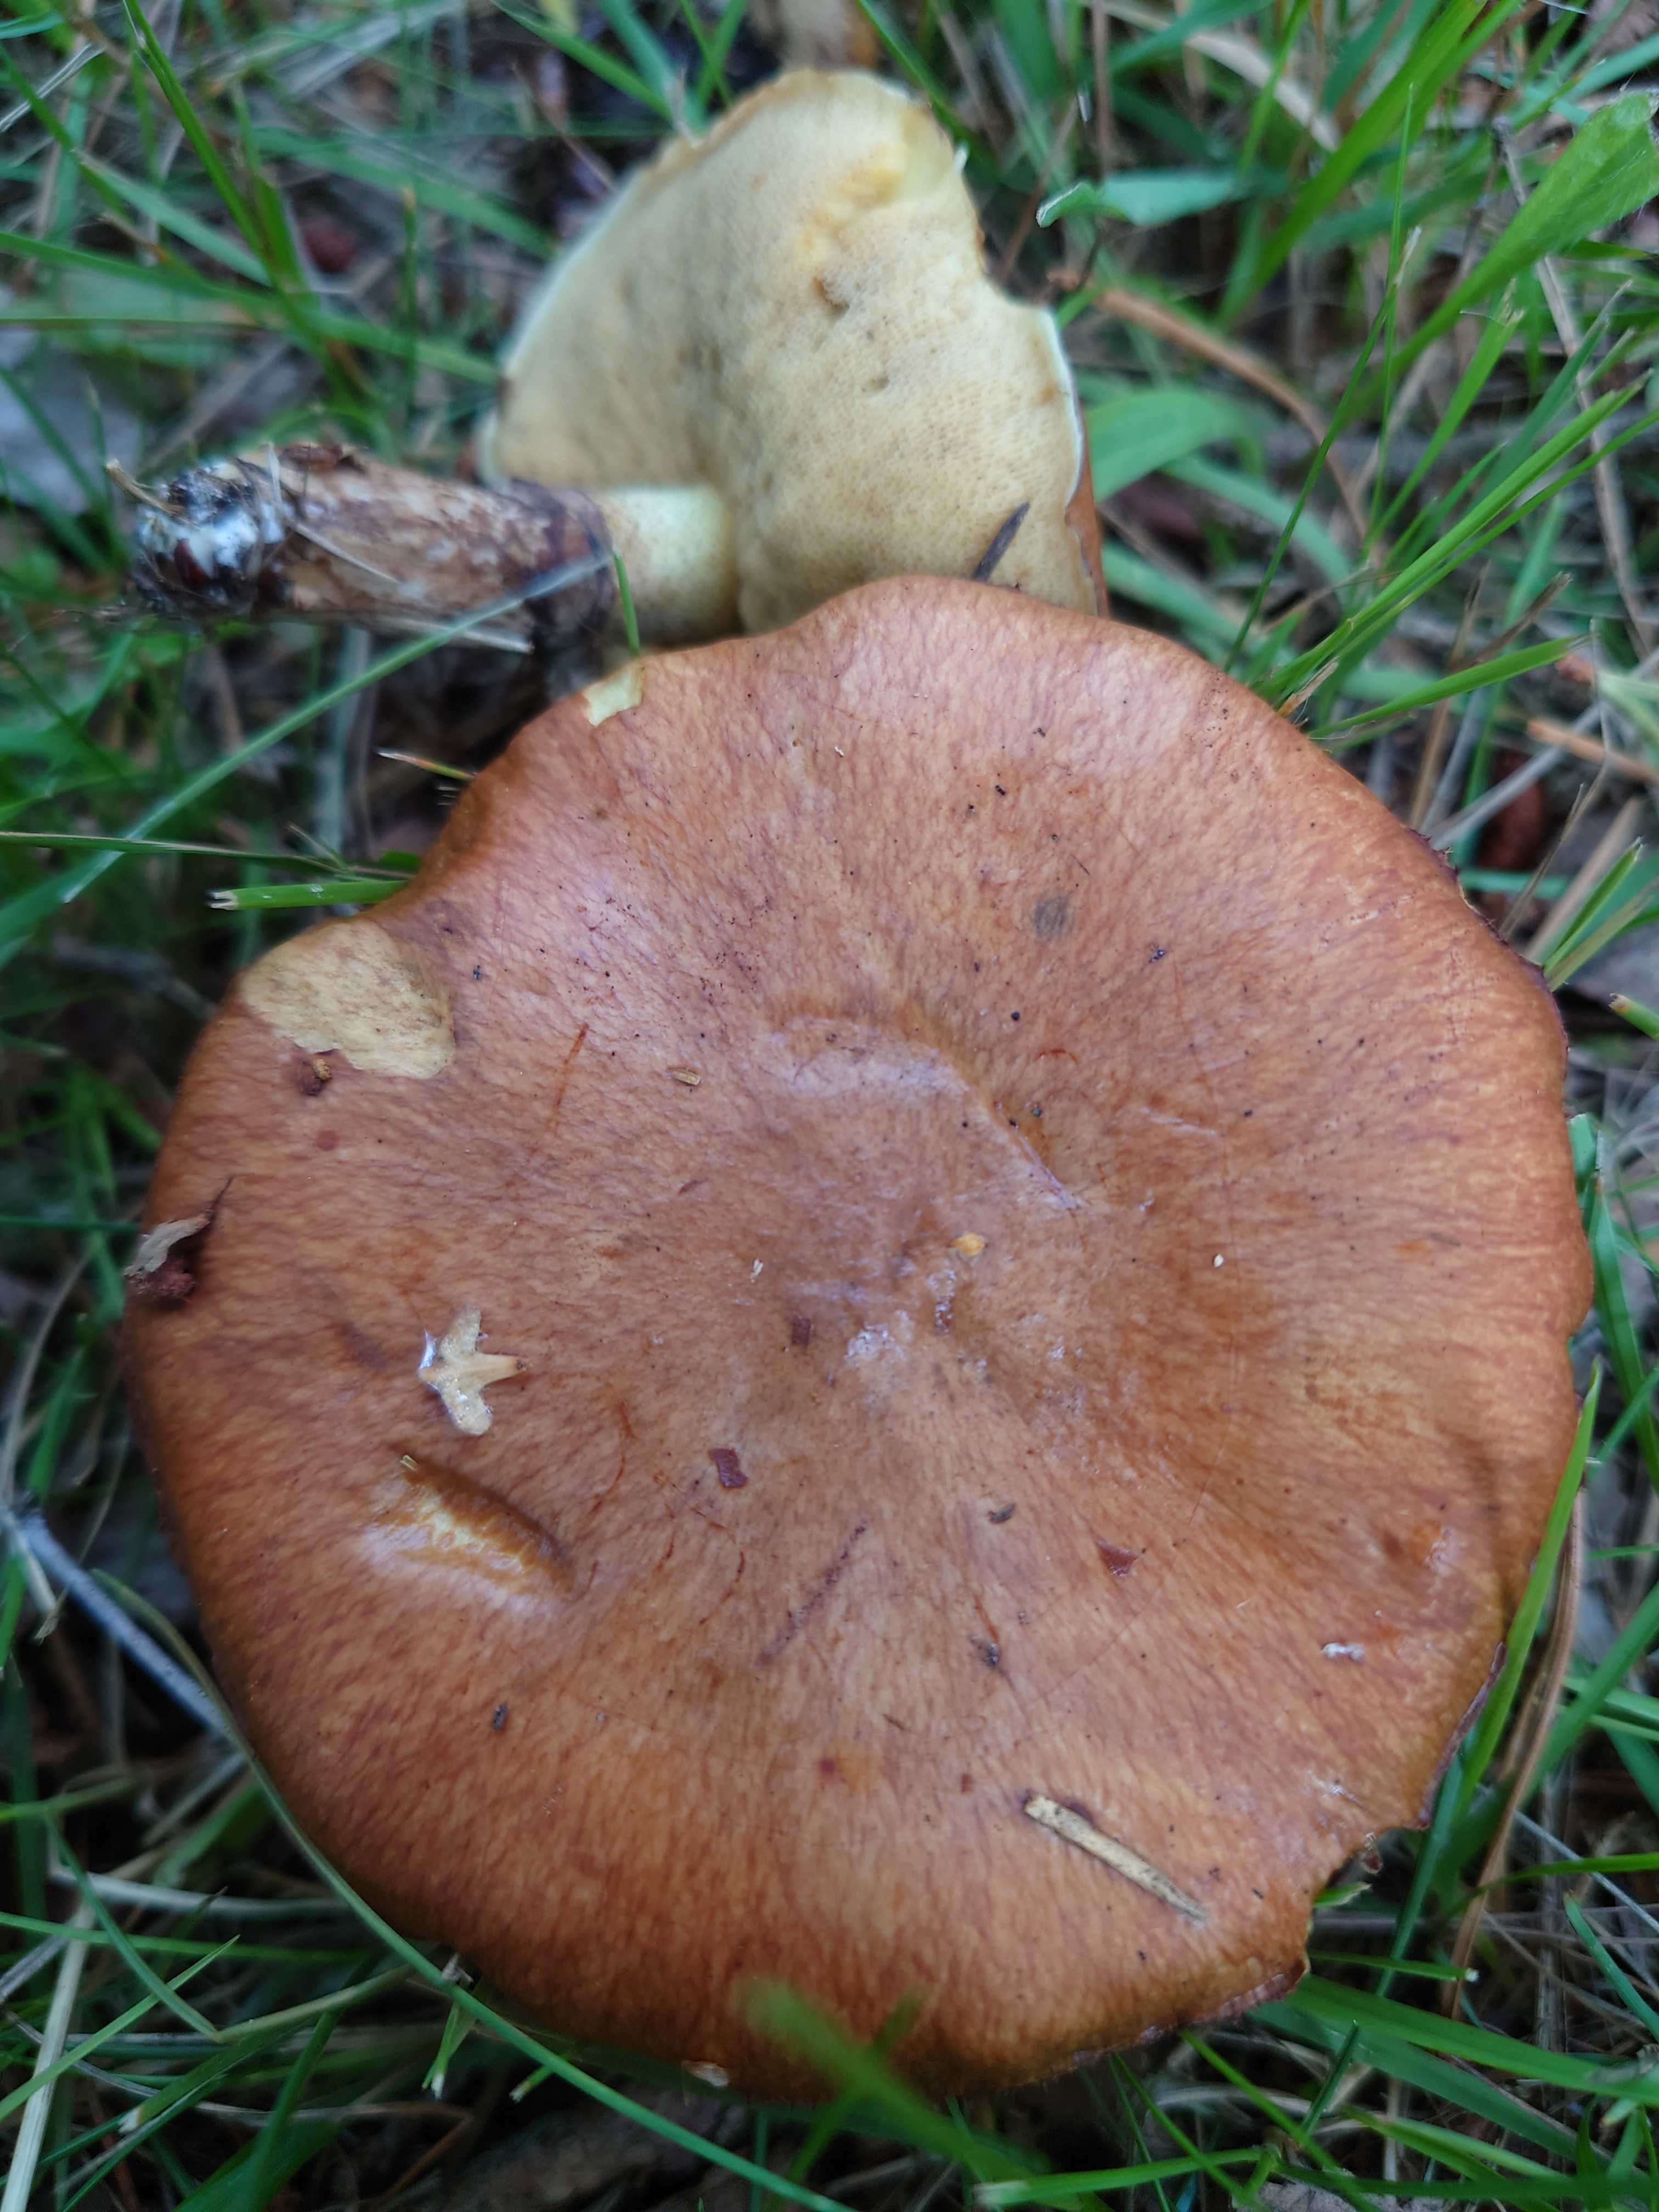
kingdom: Fungi
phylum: Basidiomycota
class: Agaricomycetes
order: Boletales
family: Suillaceae
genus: Suillus
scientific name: Suillus luteus
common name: brungul slimrørhat
